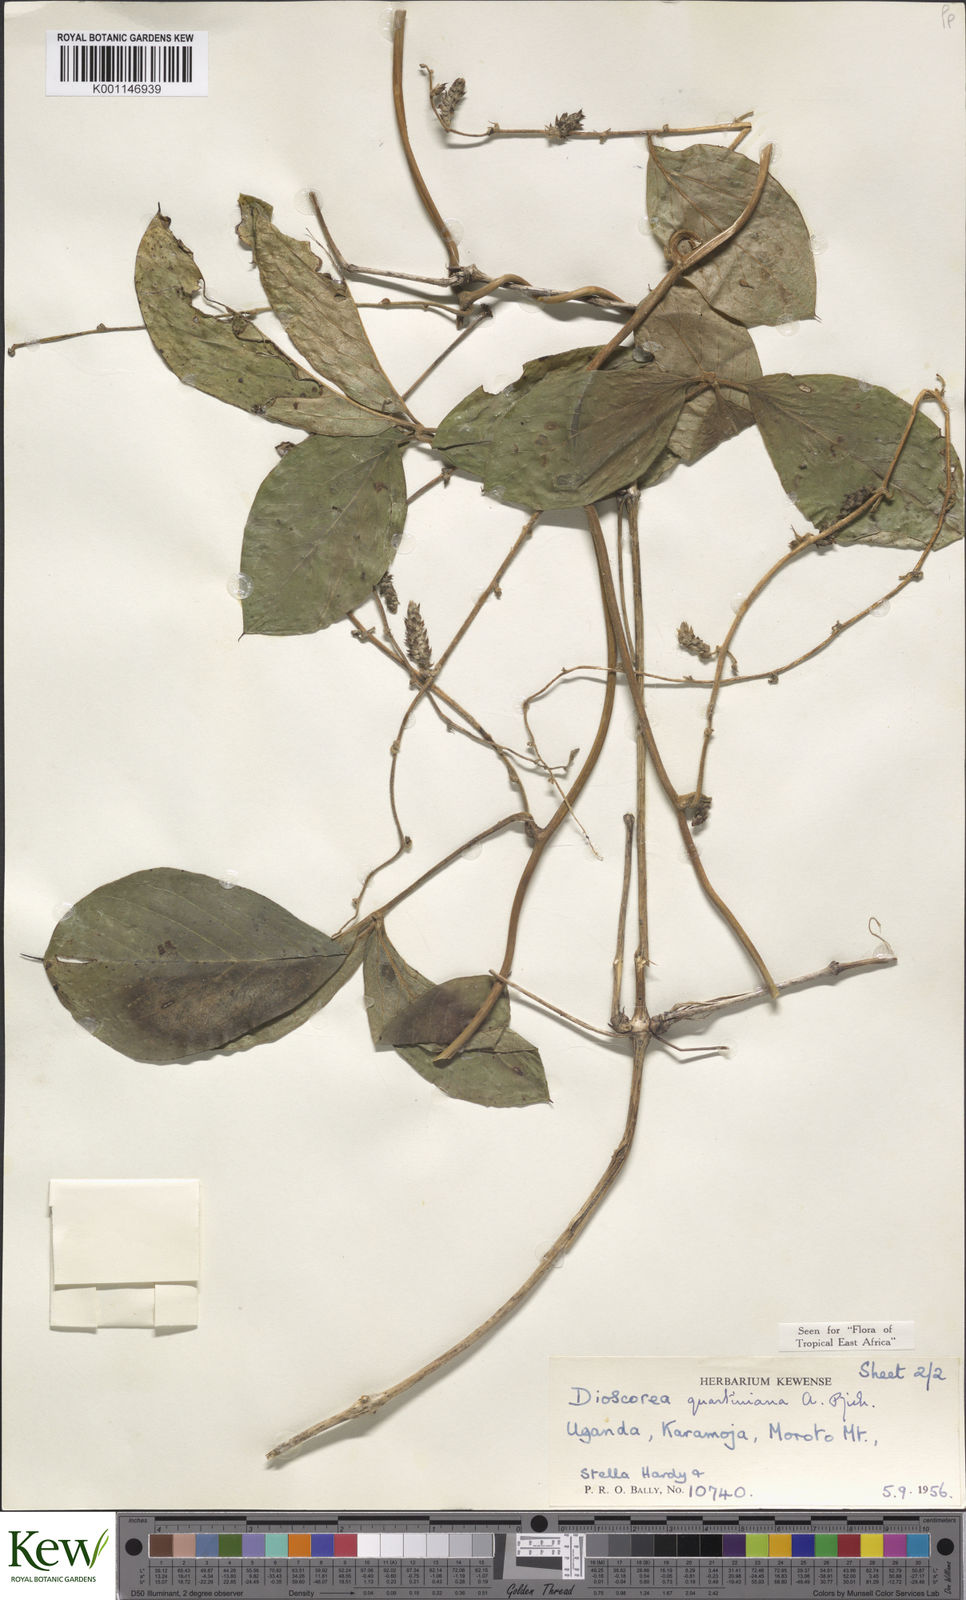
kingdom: Plantae
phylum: Tracheophyta
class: Liliopsida
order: Dioscoreales
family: Dioscoreaceae
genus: Dioscorea
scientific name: Dioscorea quartiniana
